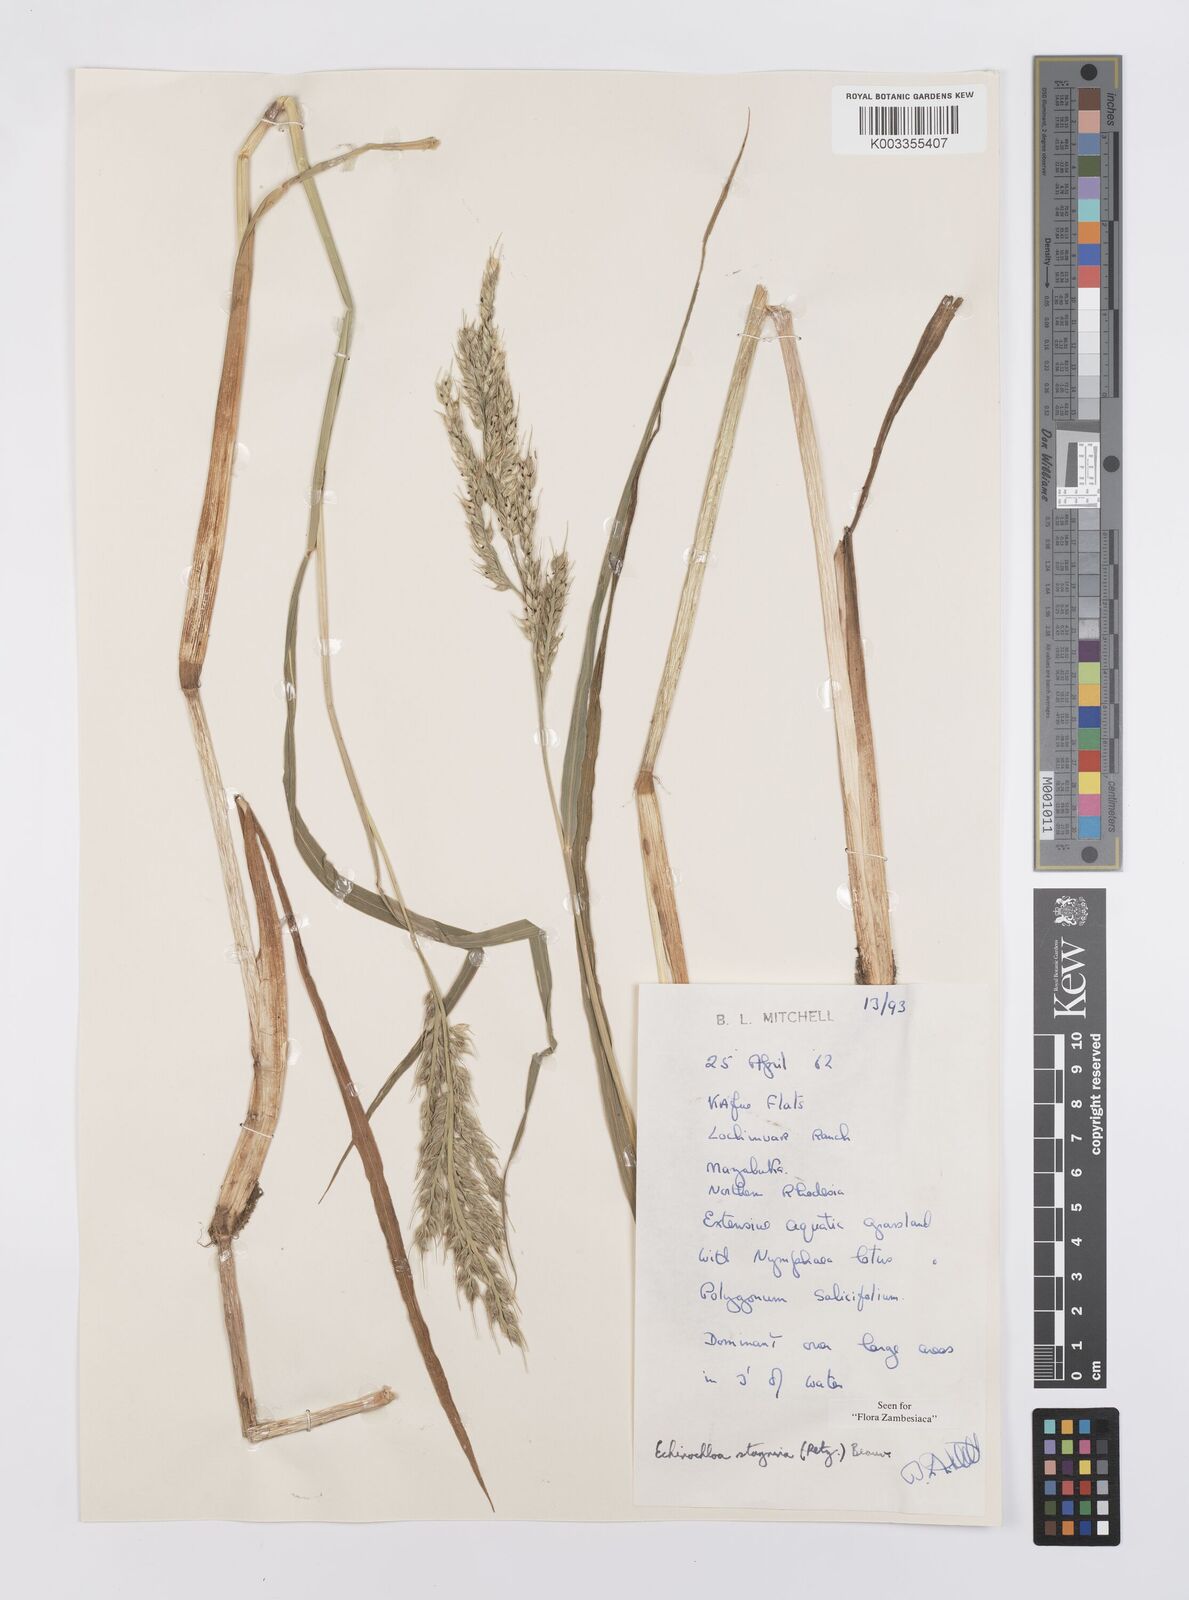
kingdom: Plantae
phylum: Tracheophyta
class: Liliopsida
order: Poales
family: Poaceae
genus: Echinochloa
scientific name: Echinochloa stagnina
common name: Burgu grass
